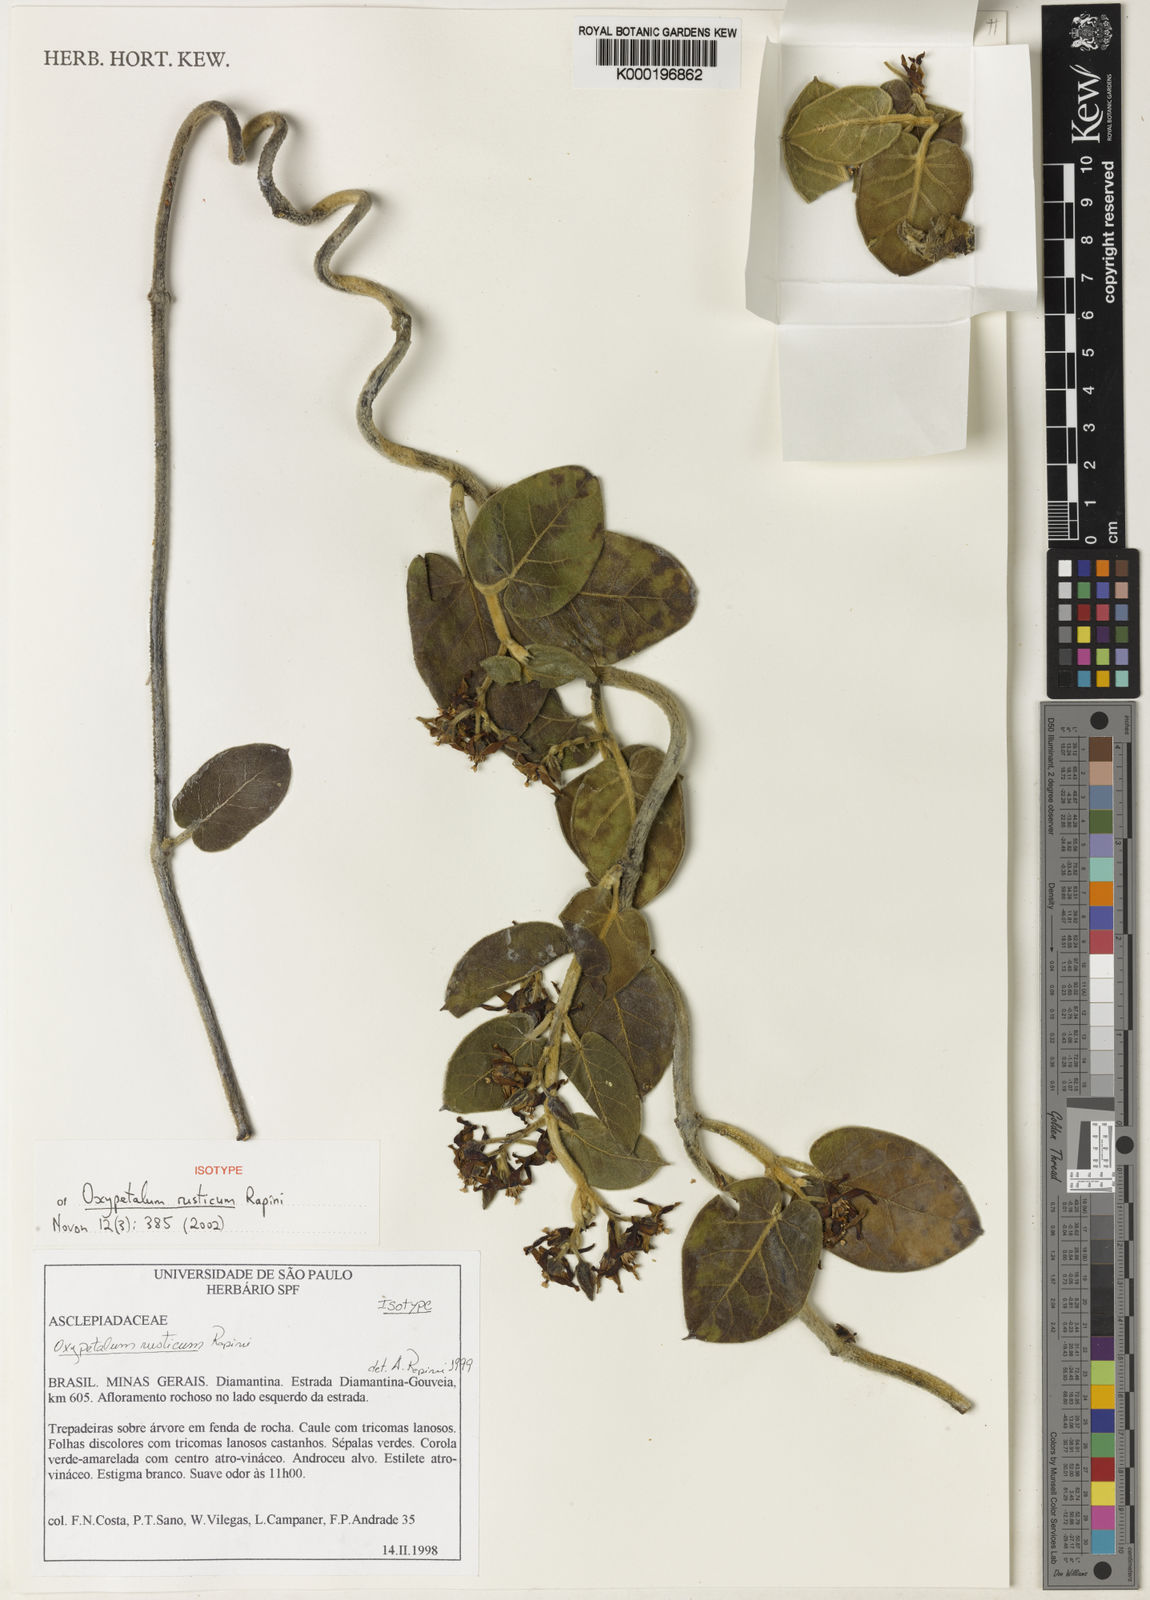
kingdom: Plantae
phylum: Tracheophyta
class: Magnoliopsida
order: Gentianales
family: Apocynaceae
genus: Oxypetalum
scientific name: Oxypetalum rusticum
